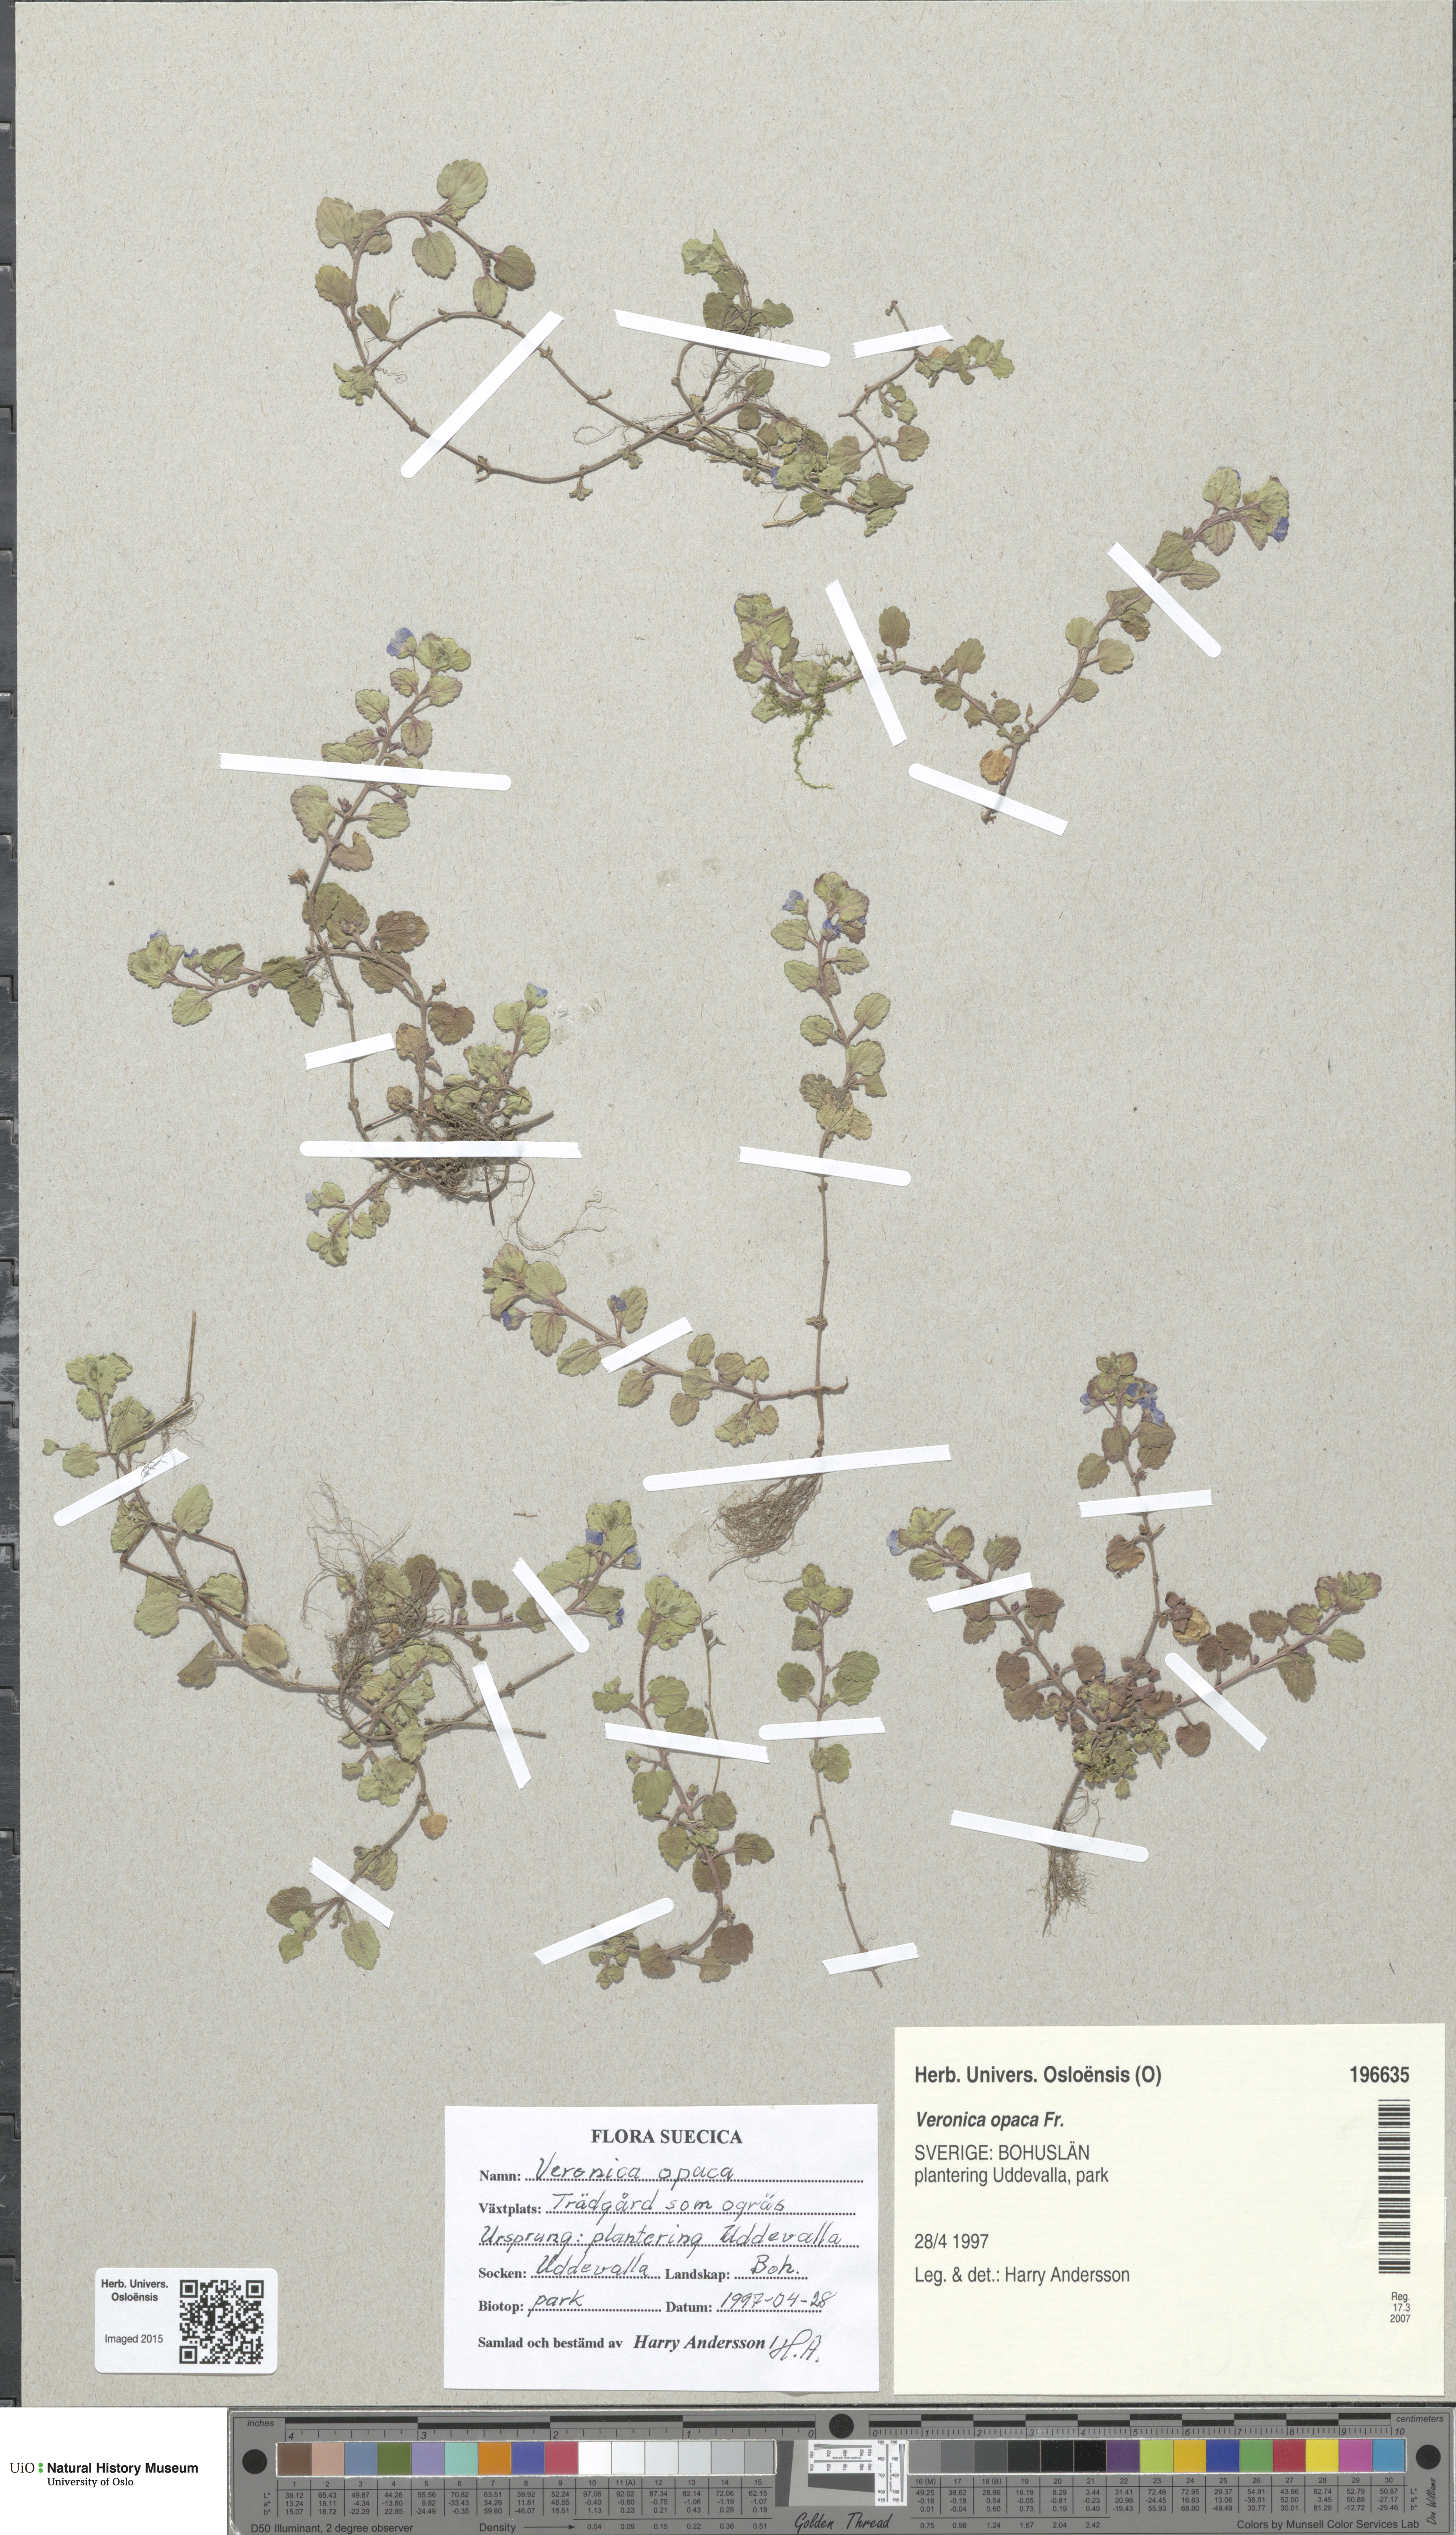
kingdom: Plantae
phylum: Tracheophyta
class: Magnoliopsida
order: Lamiales
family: Plantaginaceae
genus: Veronica
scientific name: Veronica opaca
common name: Dark speedwell
